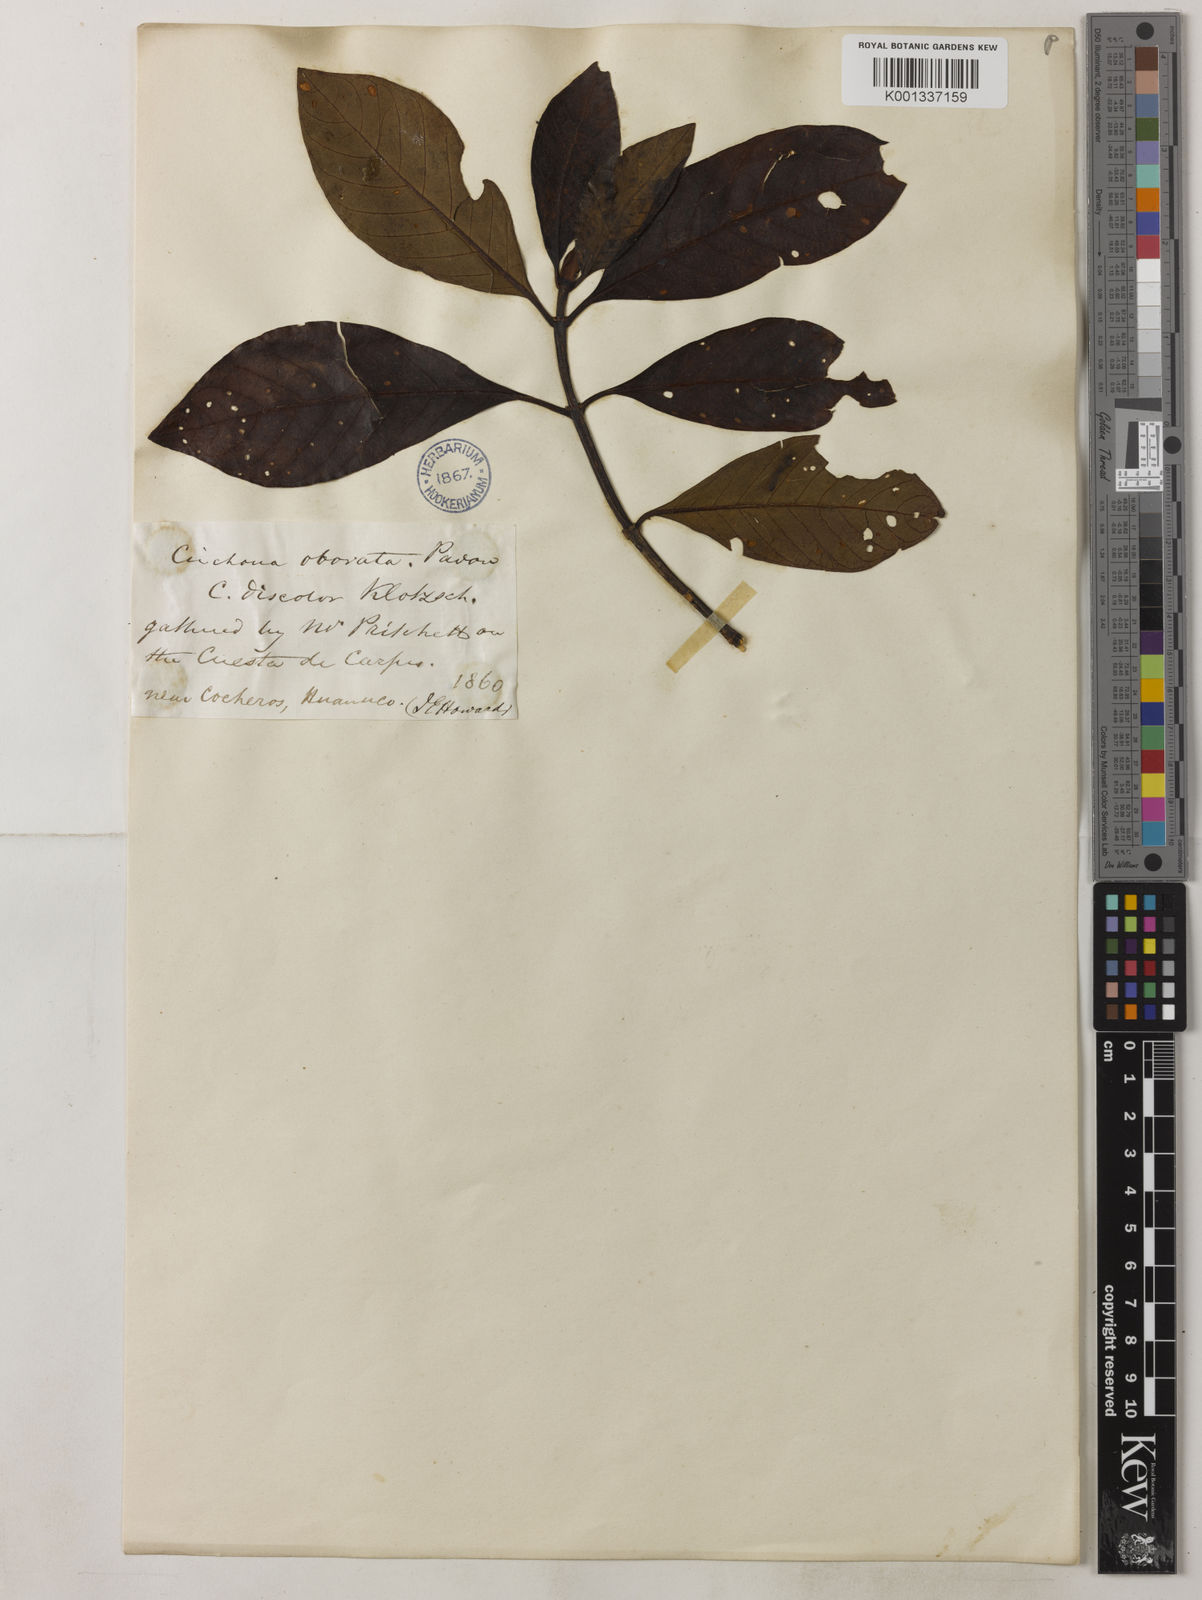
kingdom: Plantae
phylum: Tracheophyta
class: Magnoliopsida
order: Gentianales
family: Rubiaceae
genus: Cinchona
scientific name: Cinchona nitida
